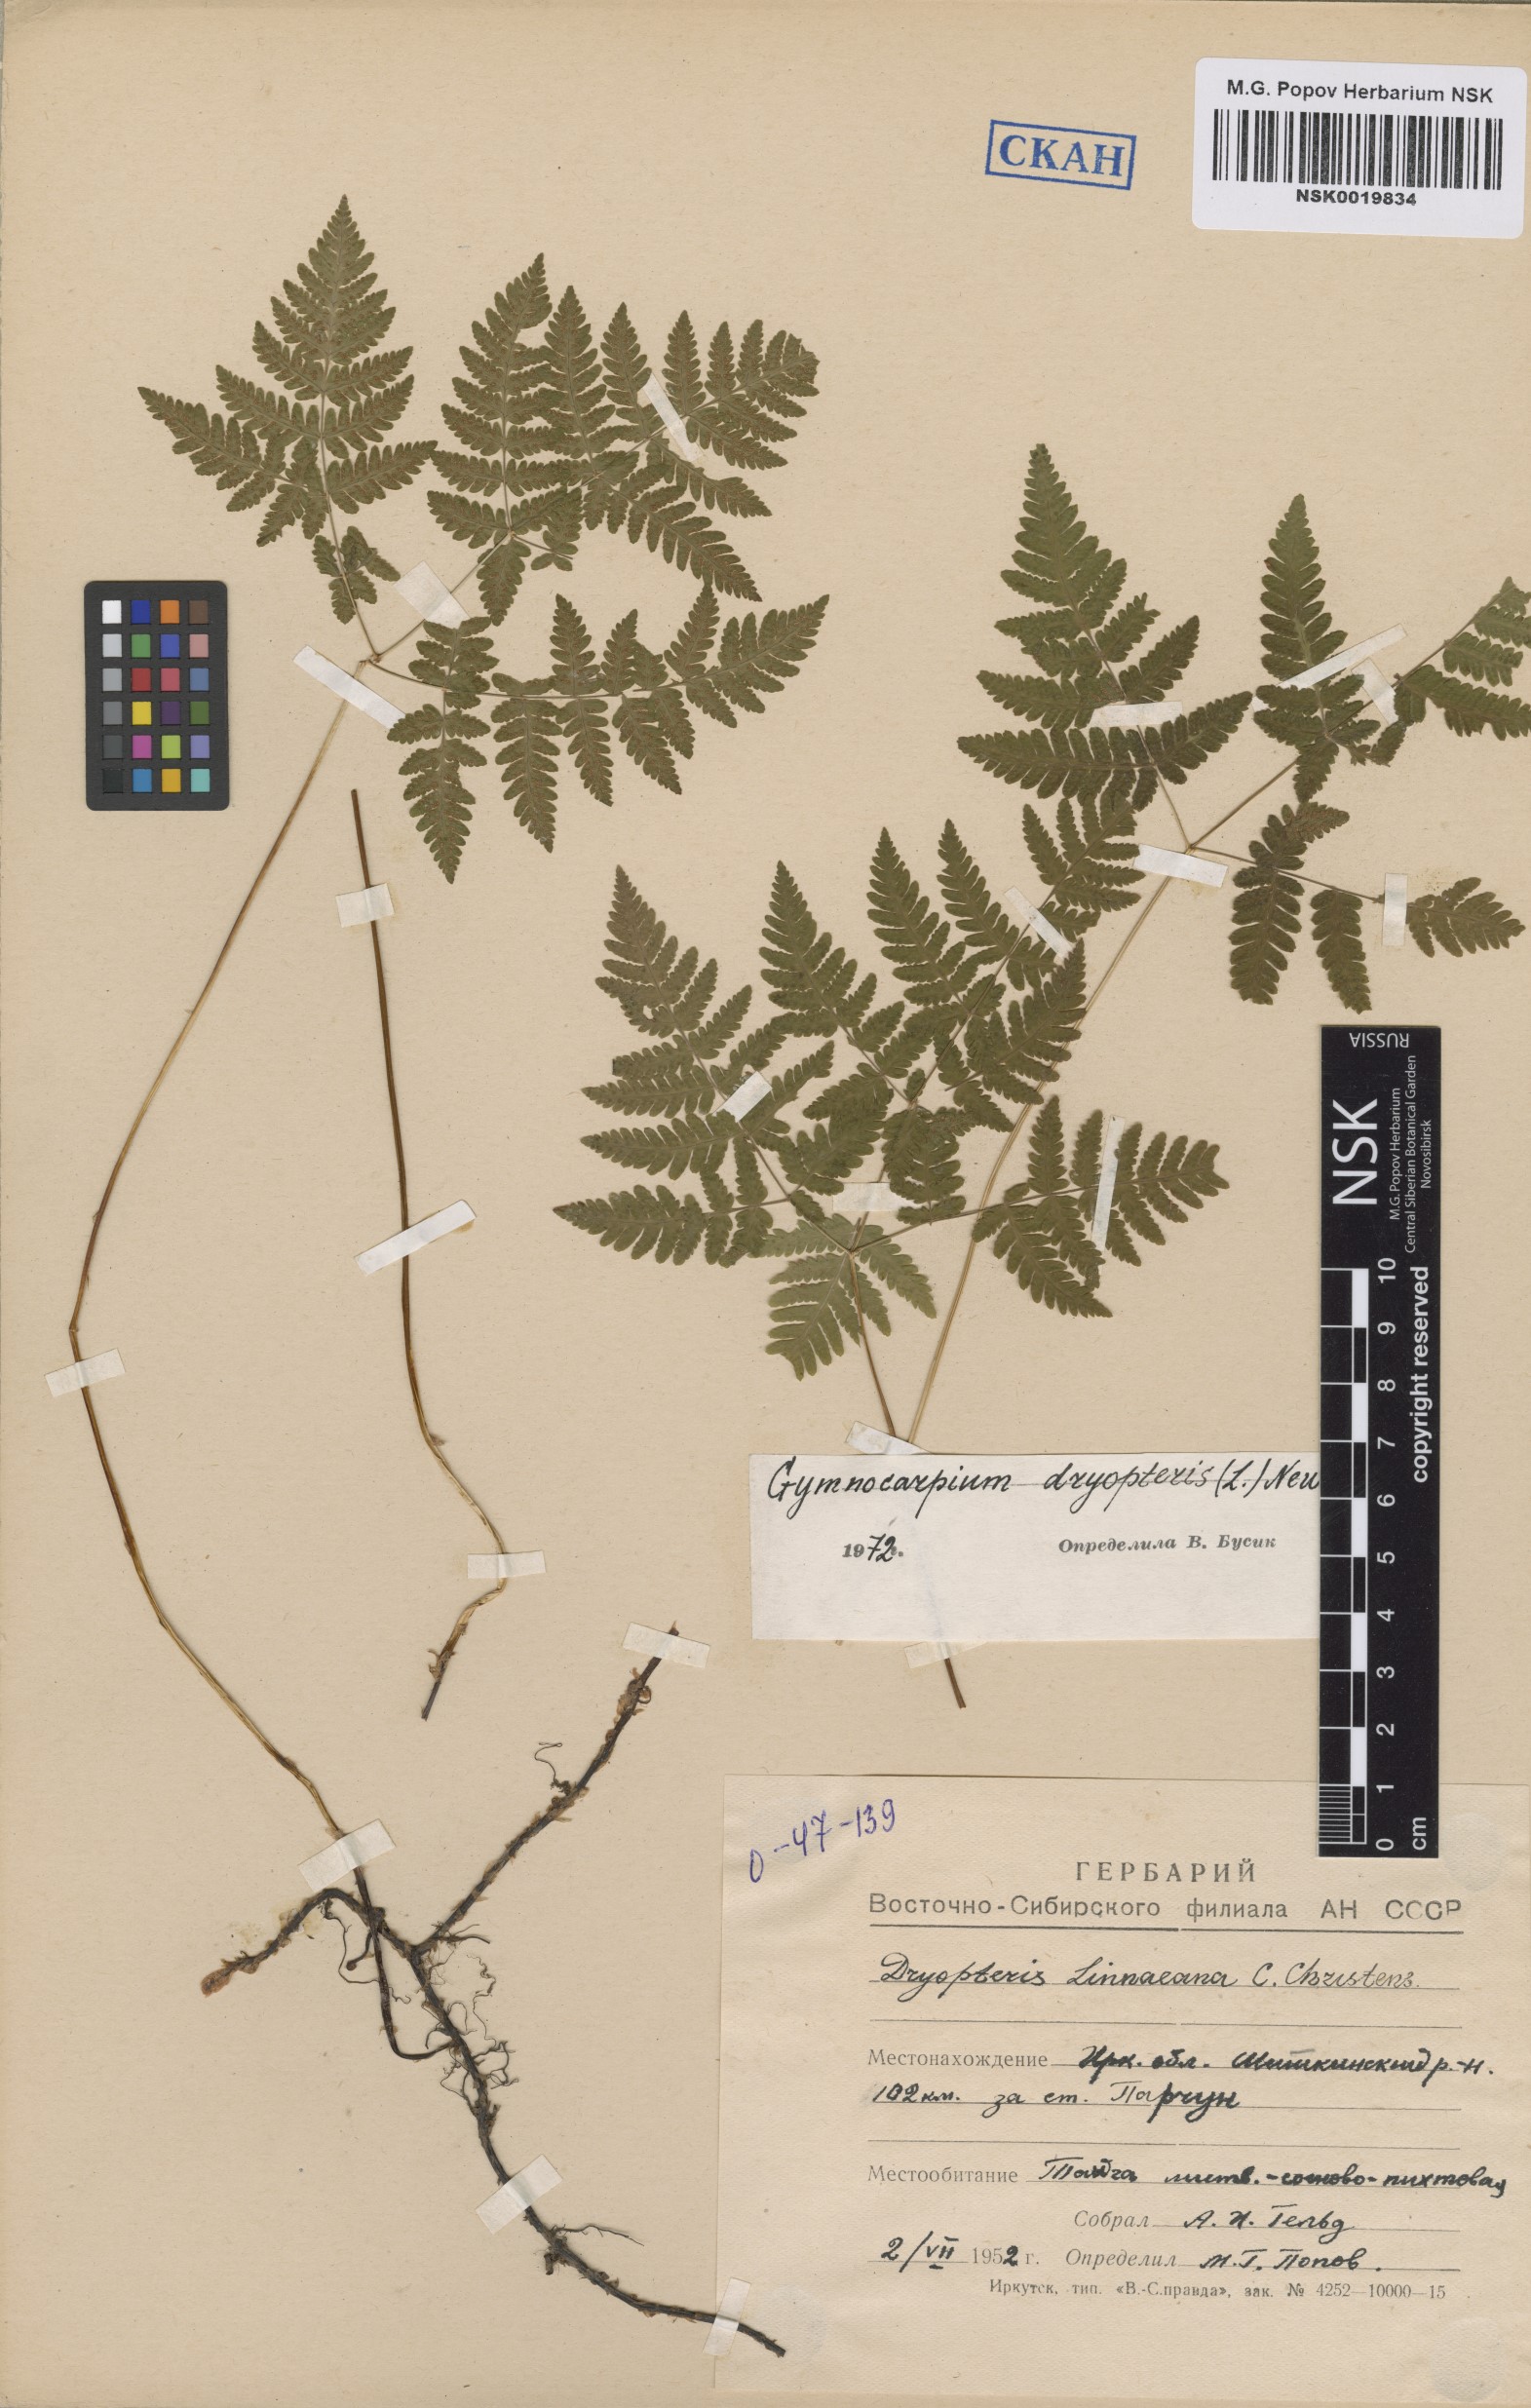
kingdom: Plantae
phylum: Tracheophyta
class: Polypodiopsida
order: Polypodiales
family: Cystopteridaceae
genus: Gymnocarpium
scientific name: Gymnocarpium dryopteris
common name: Oak fern
